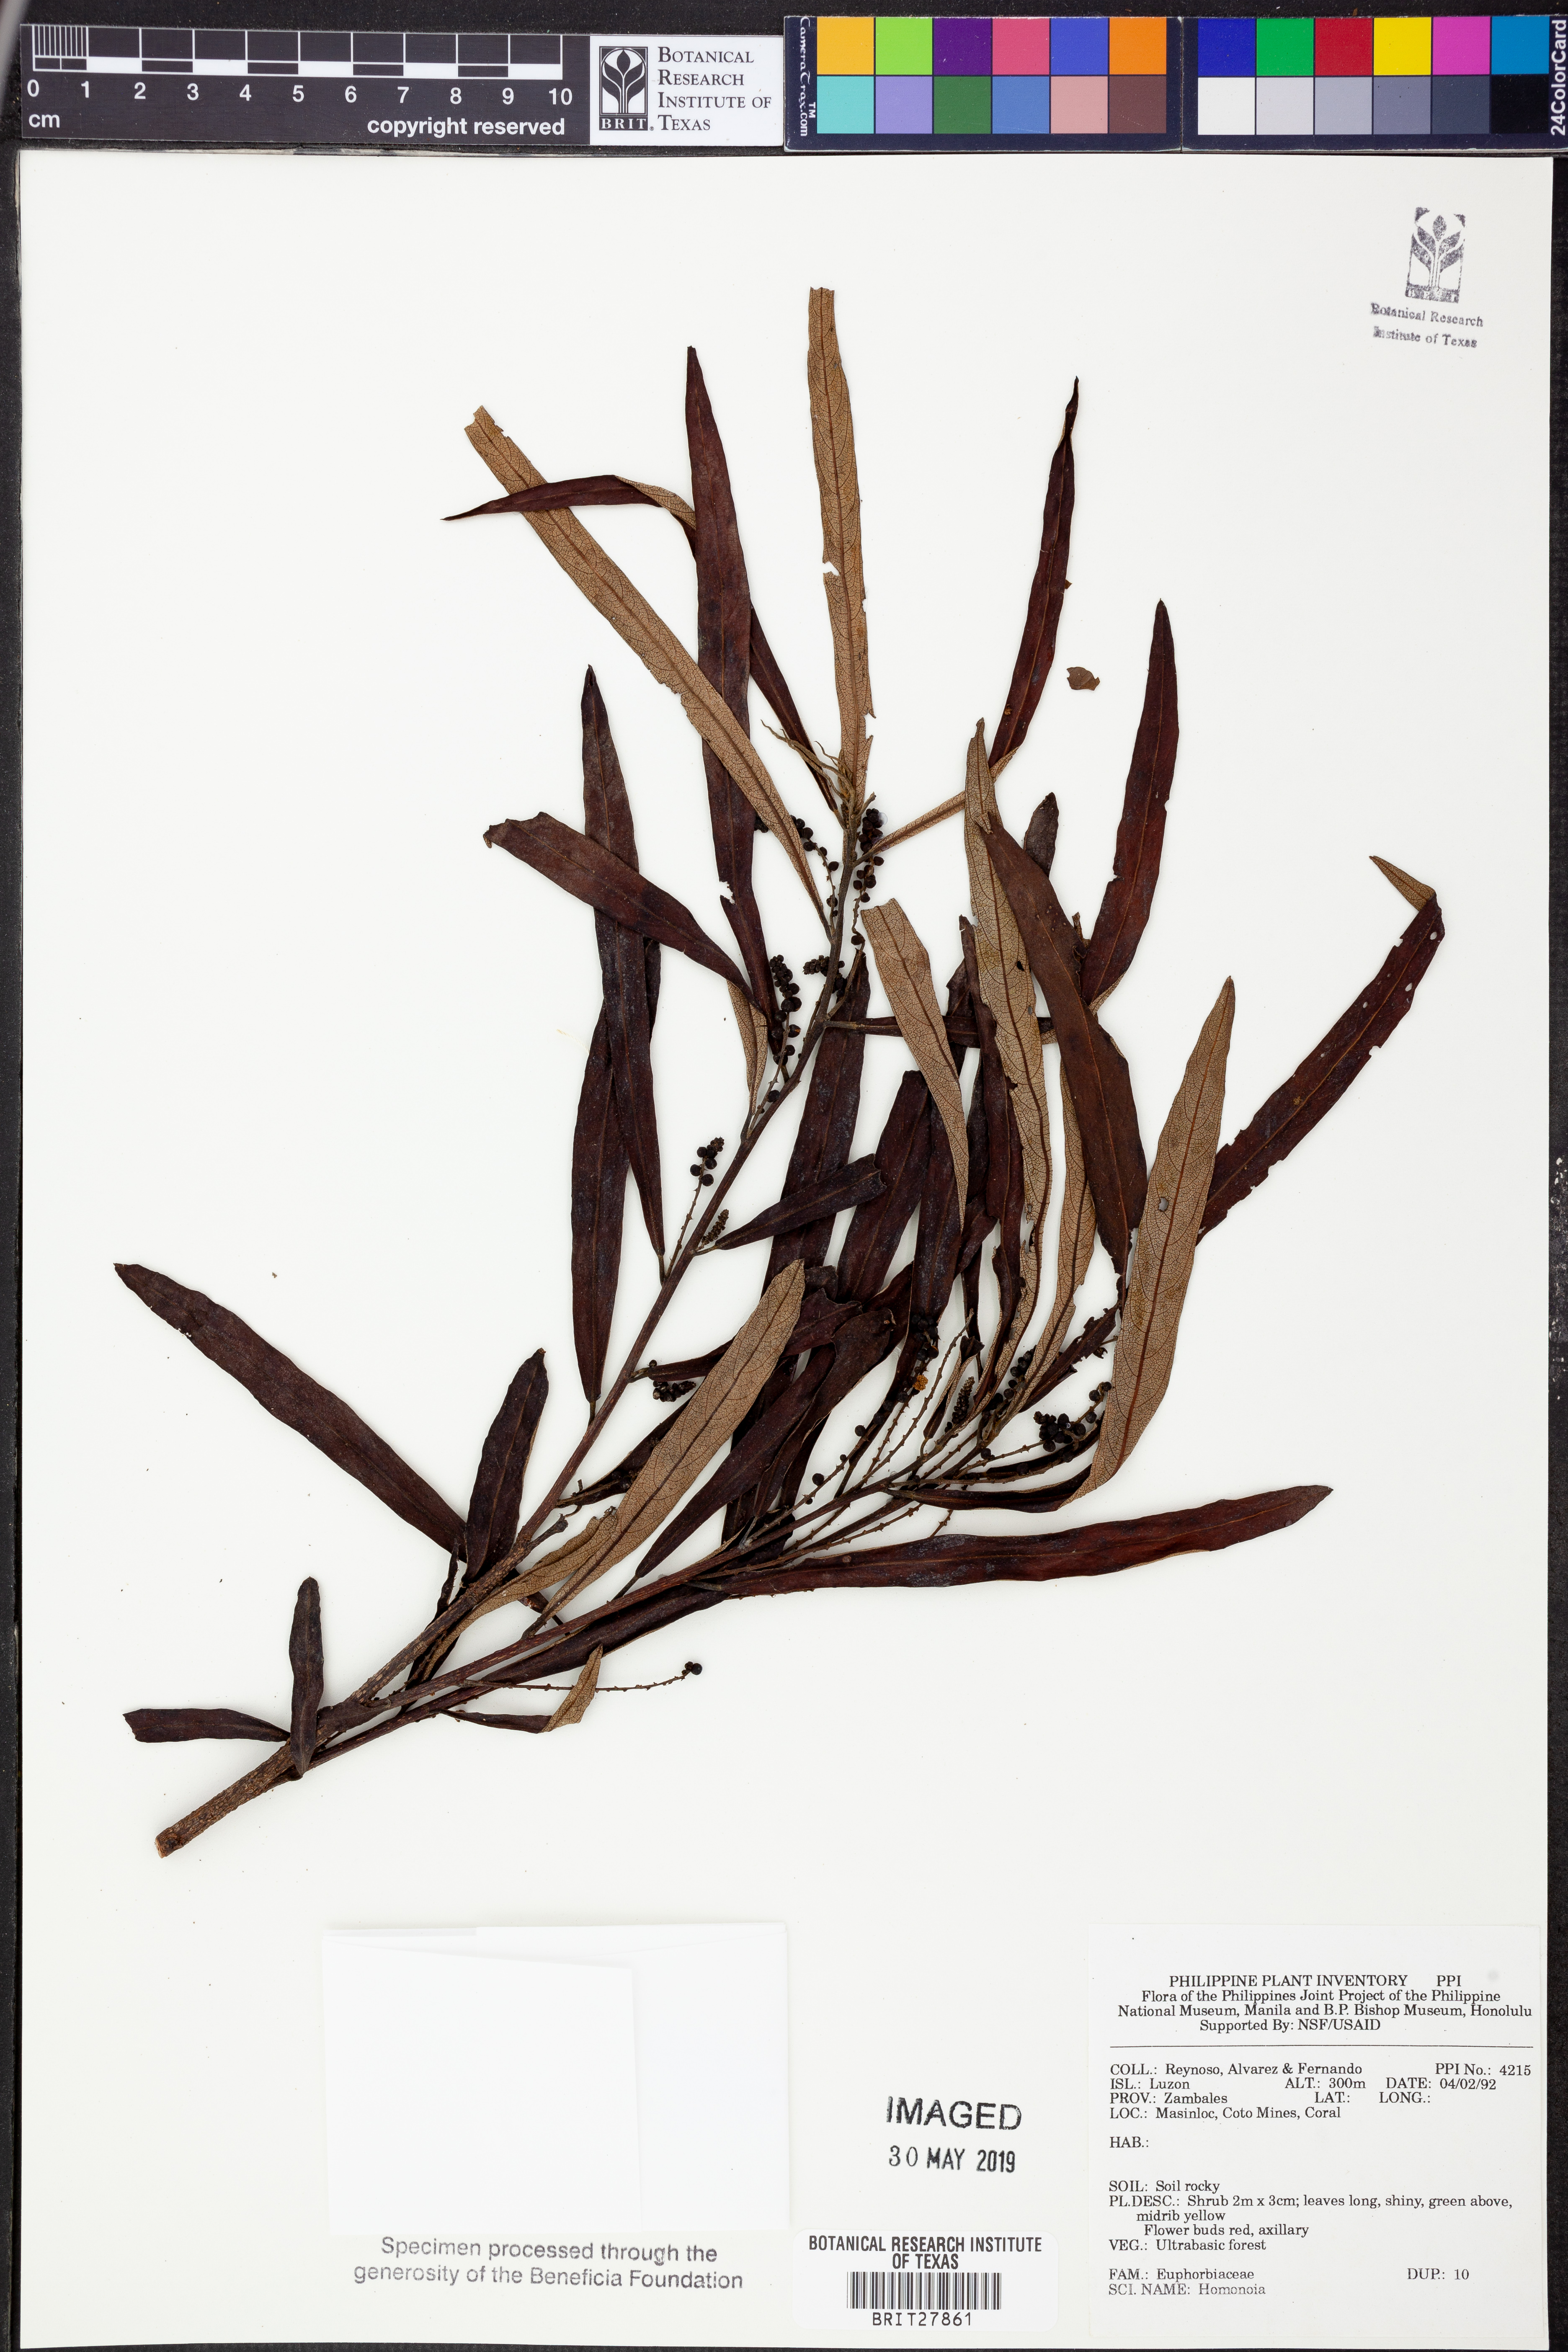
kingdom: Plantae
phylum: Tracheophyta
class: Magnoliopsida
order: Malpighiales
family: Euphorbiaceae
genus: Homonoia
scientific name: Homonoia
